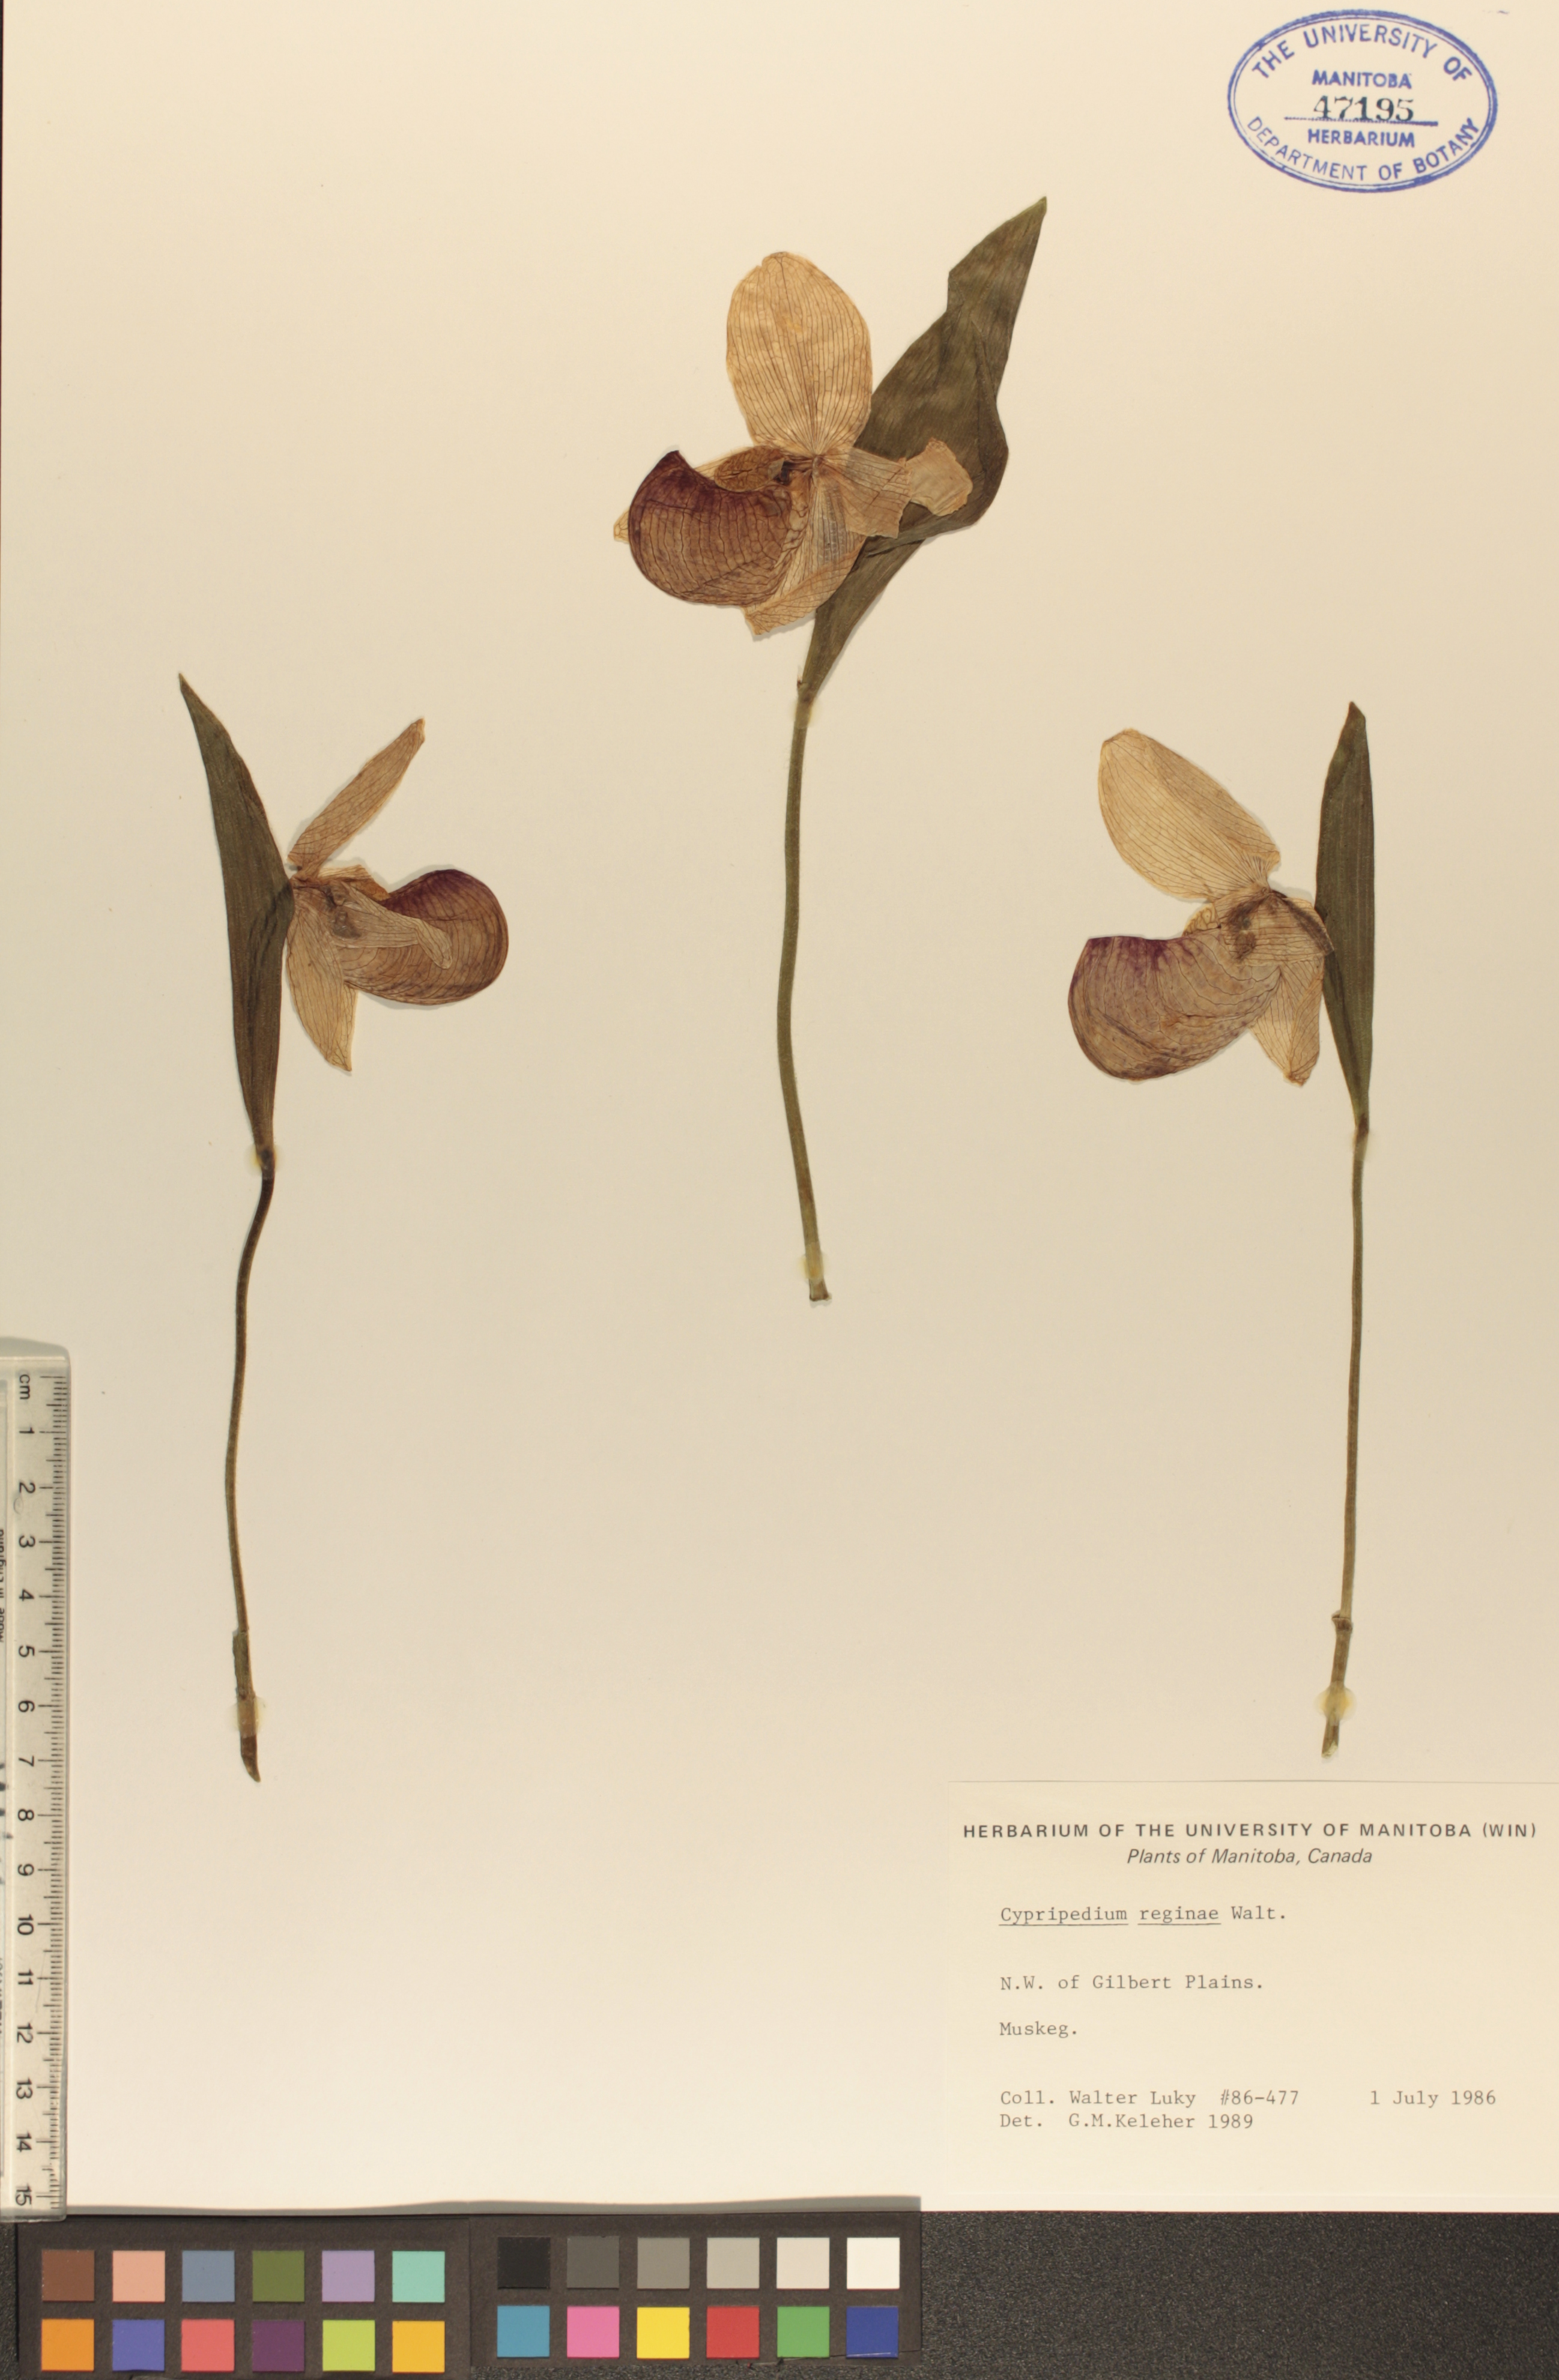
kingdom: Plantae
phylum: Tracheophyta
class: Liliopsida
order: Asparagales
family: Orchidaceae
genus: Cypripedium
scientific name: Cypripedium reginae
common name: Queen lady's-slipper
